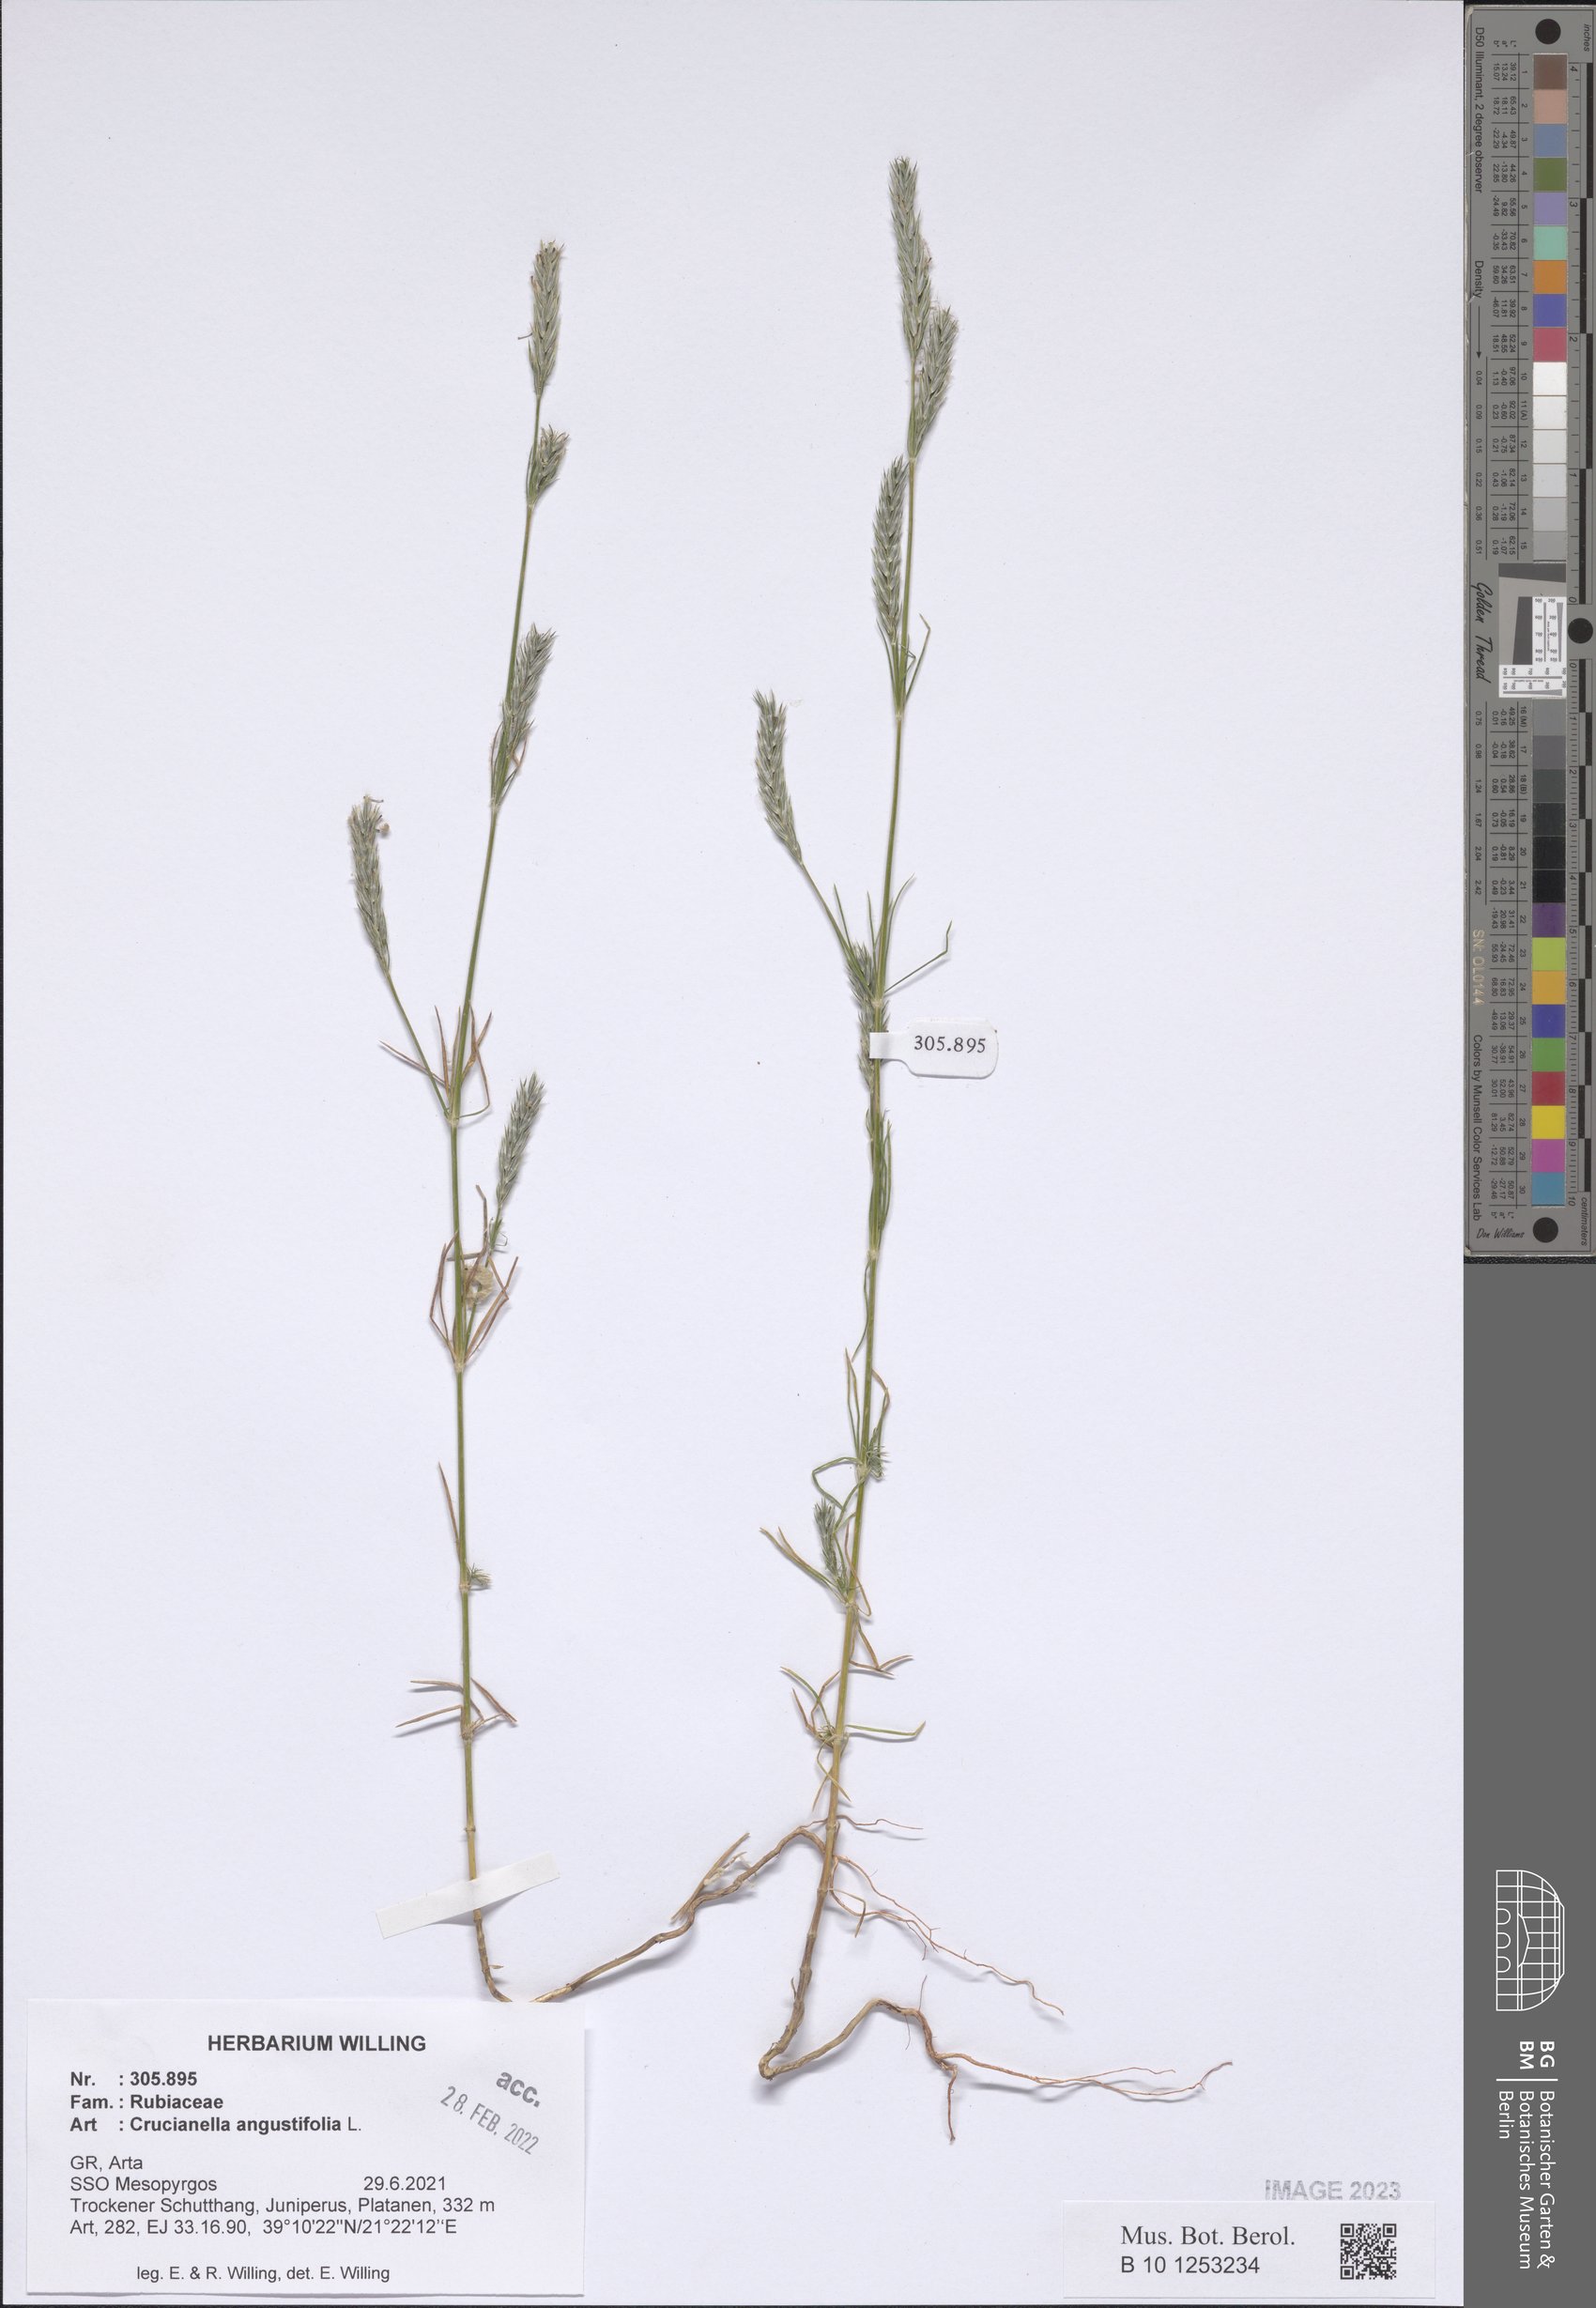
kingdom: Plantae
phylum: Tracheophyta
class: Magnoliopsida
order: Gentianales
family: Rubiaceae
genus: Crucianella
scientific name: Crucianella angustifolia
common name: Narrowleaf crucianella
